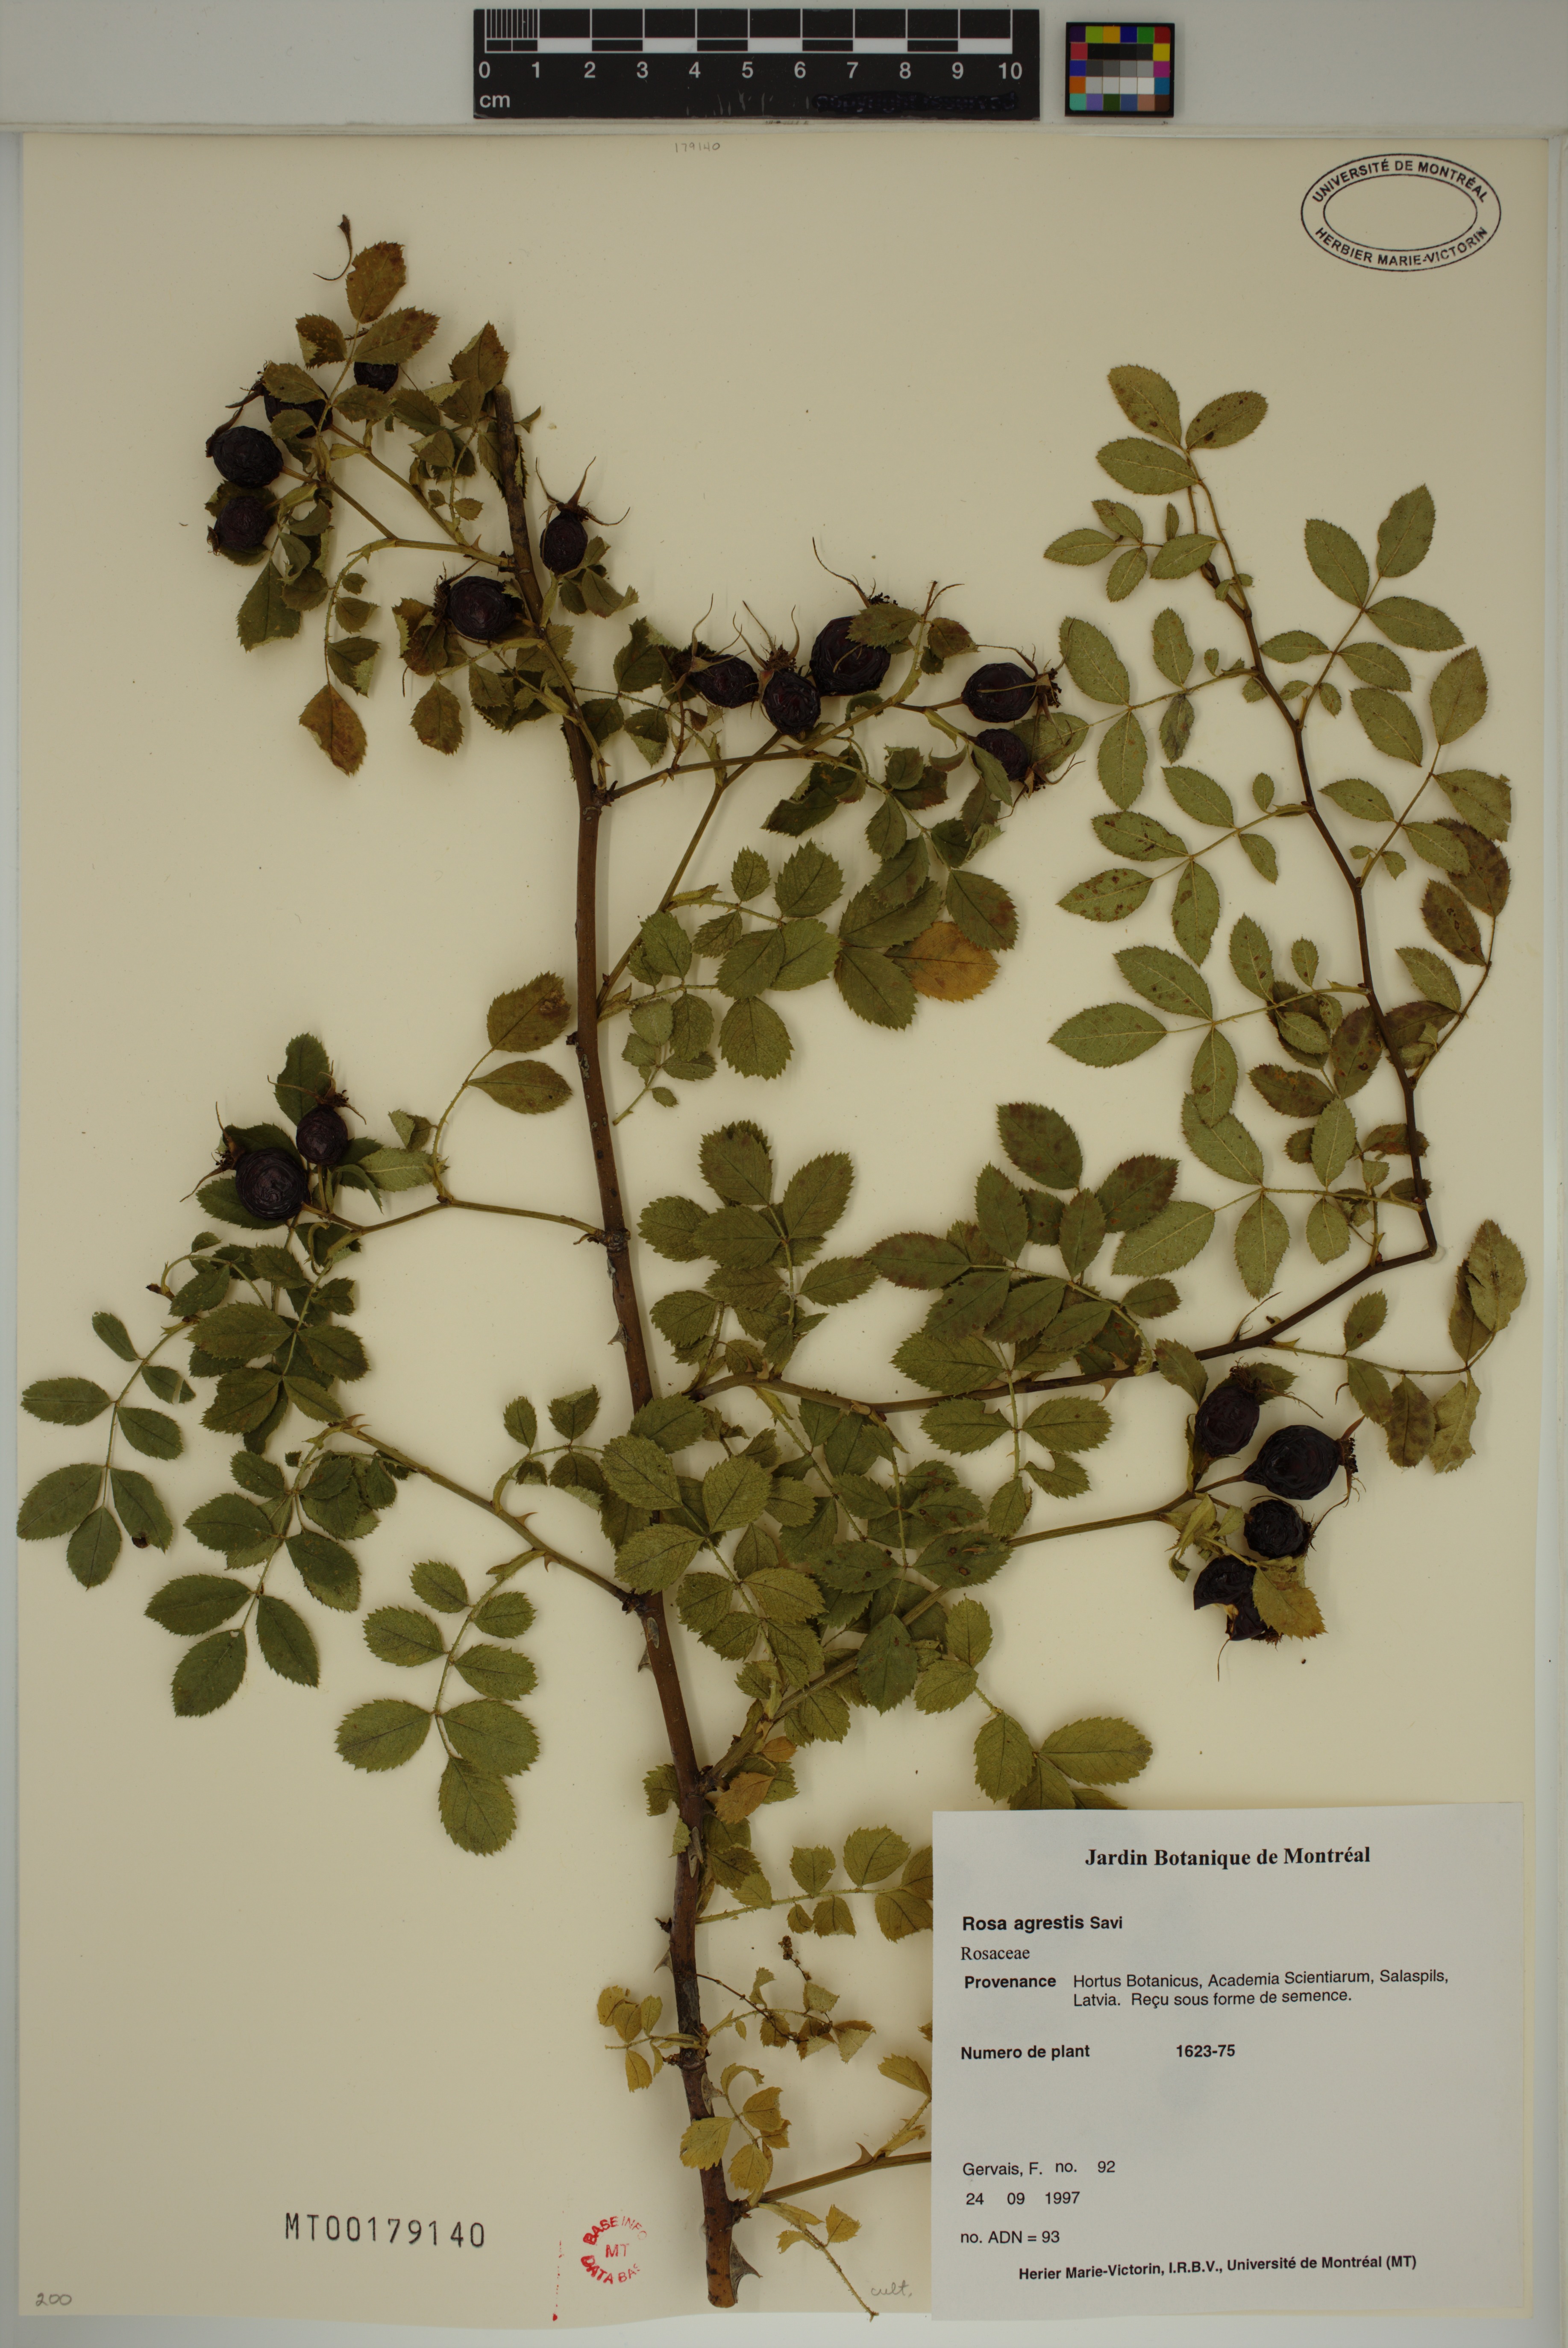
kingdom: Plantae
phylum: Tracheophyta
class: Magnoliopsida
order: Rosales
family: Rosaceae
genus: Rosa
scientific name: Rosa agrestis
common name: Fieldbriar
